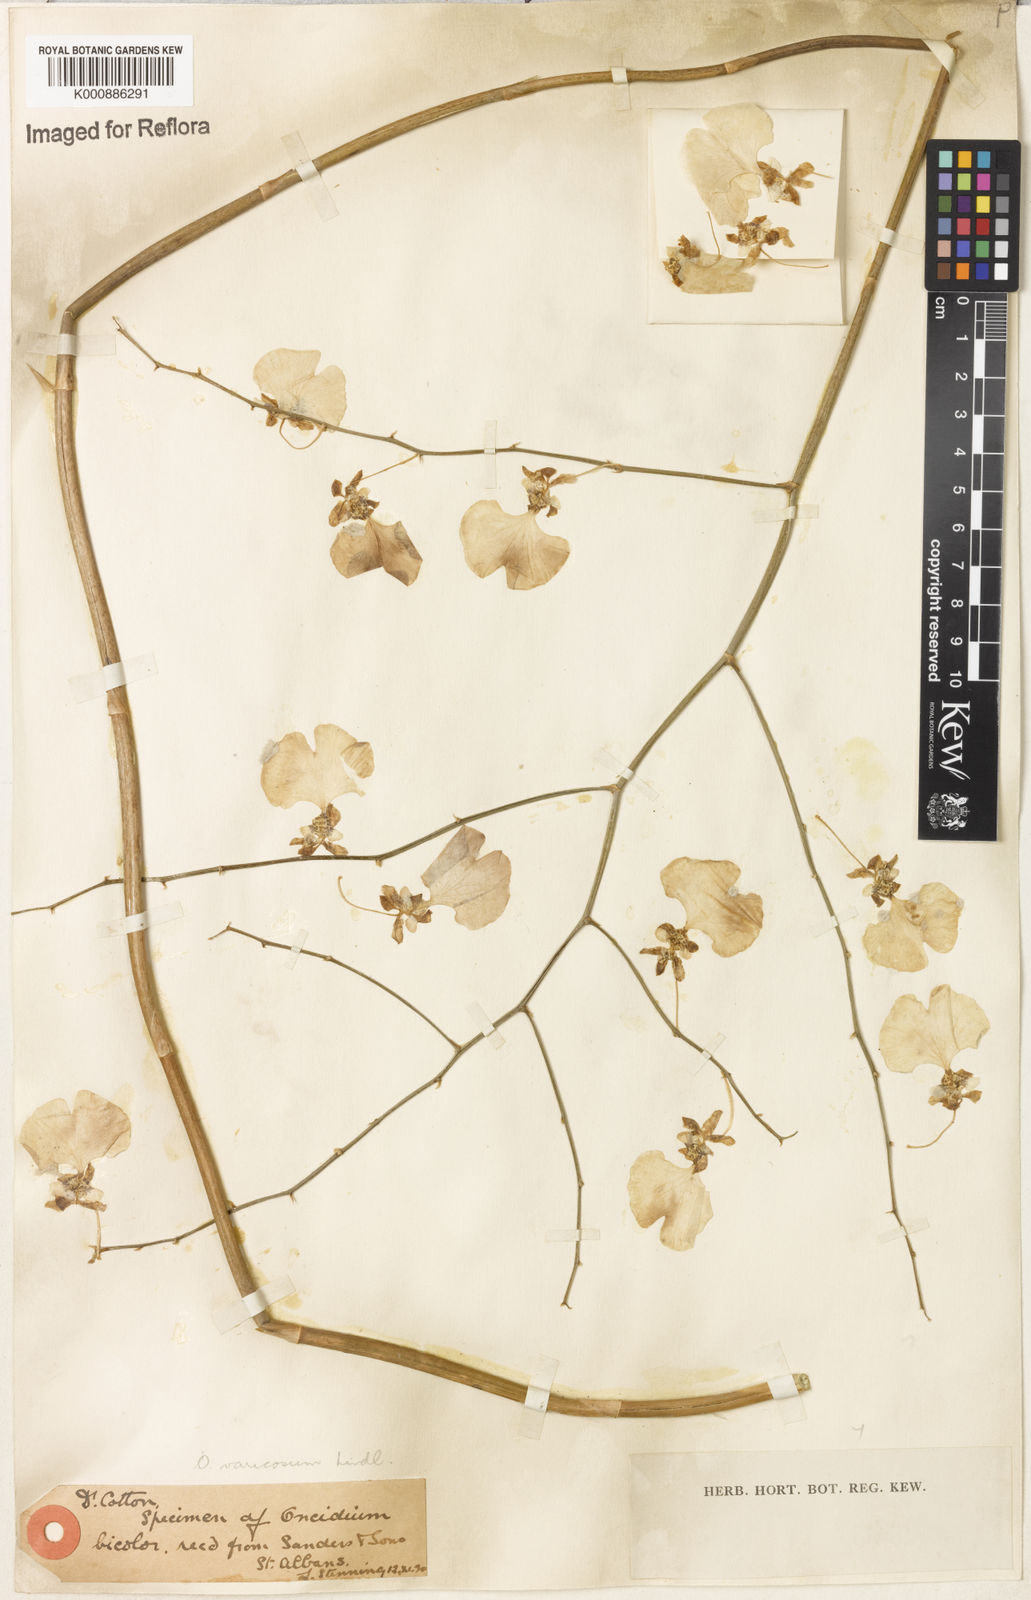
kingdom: Plantae
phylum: Tracheophyta
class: Liliopsida
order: Asparagales
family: Orchidaceae
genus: Gomesa
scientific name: Gomesa bicolor
